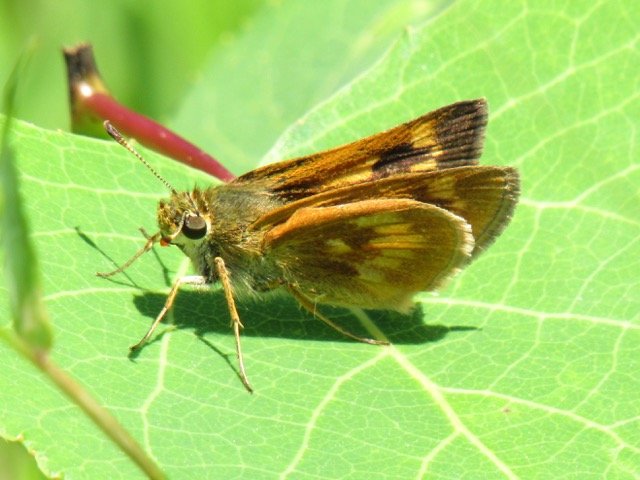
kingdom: Animalia
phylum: Arthropoda
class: Insecta
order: Lepidoptera
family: Hesperiidae
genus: Polites
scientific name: Polites
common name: Long Dash Skipper
